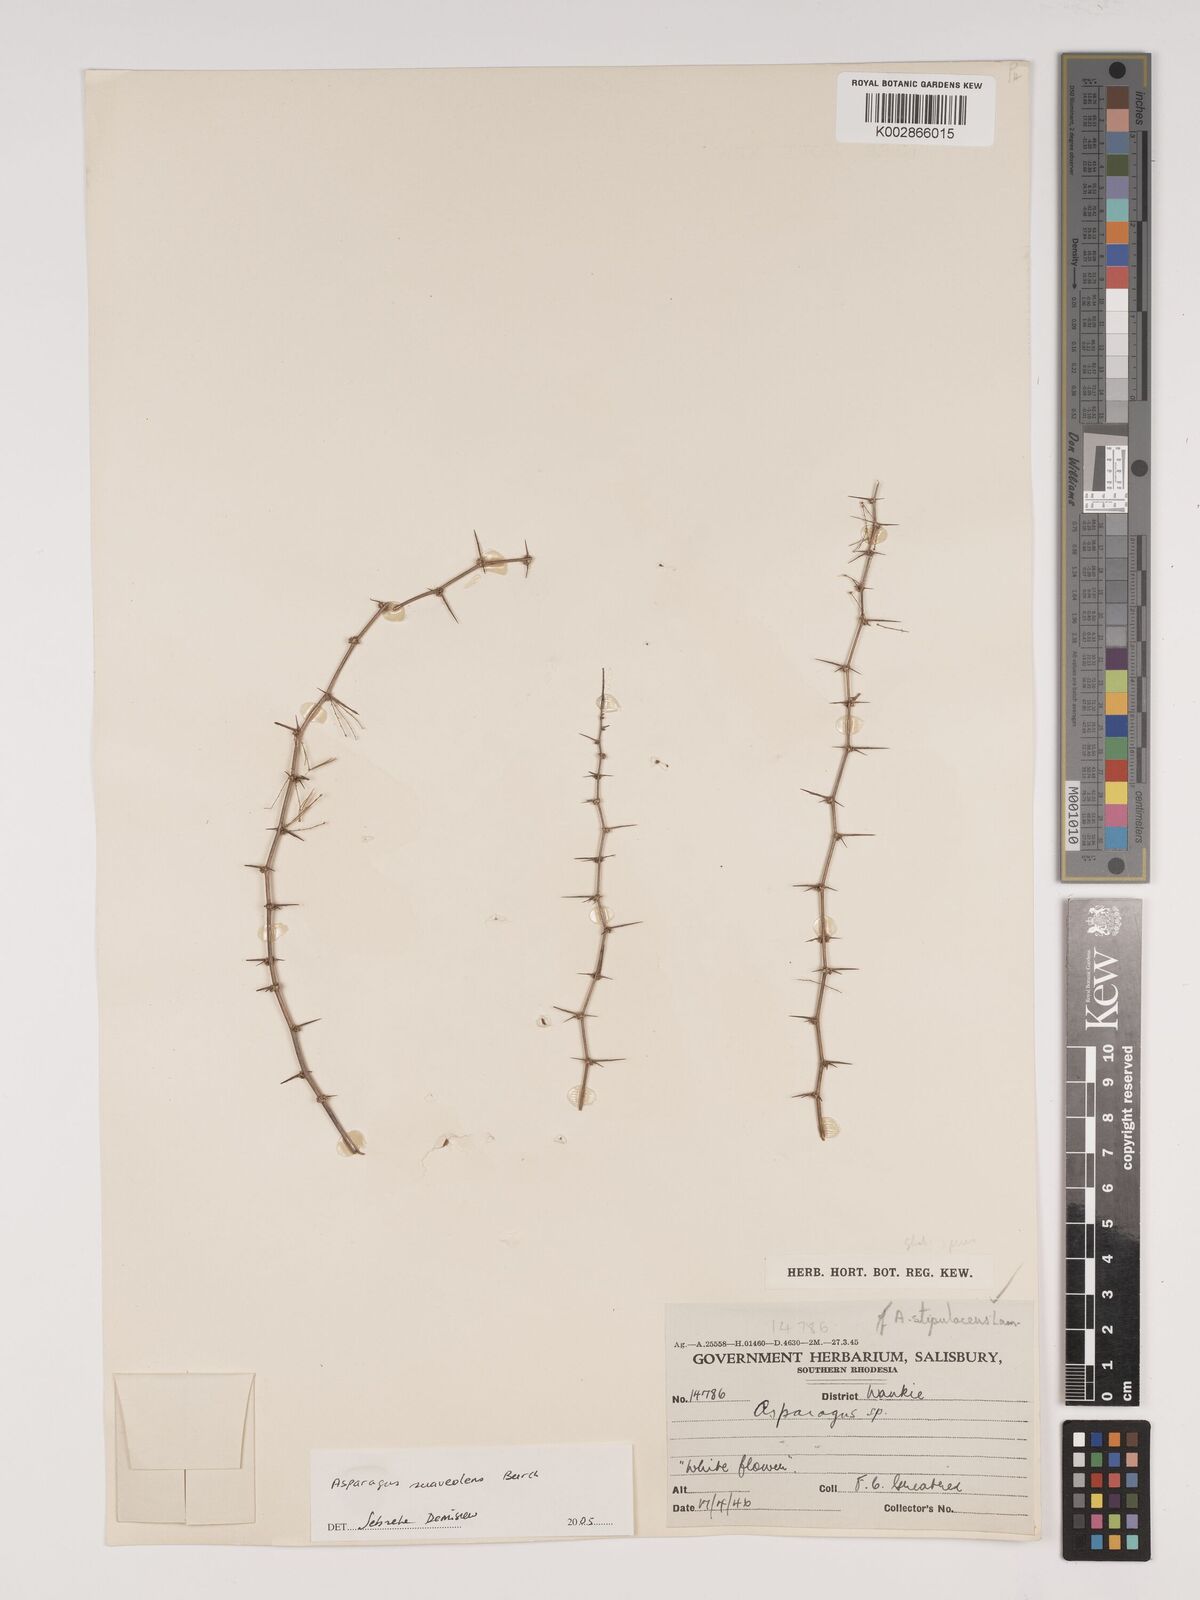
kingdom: Plantae
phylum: Tracheophyta
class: Liliopsida
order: Asparagales
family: Asparagaceae
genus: Asparagus
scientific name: Asparagus suaveolens
